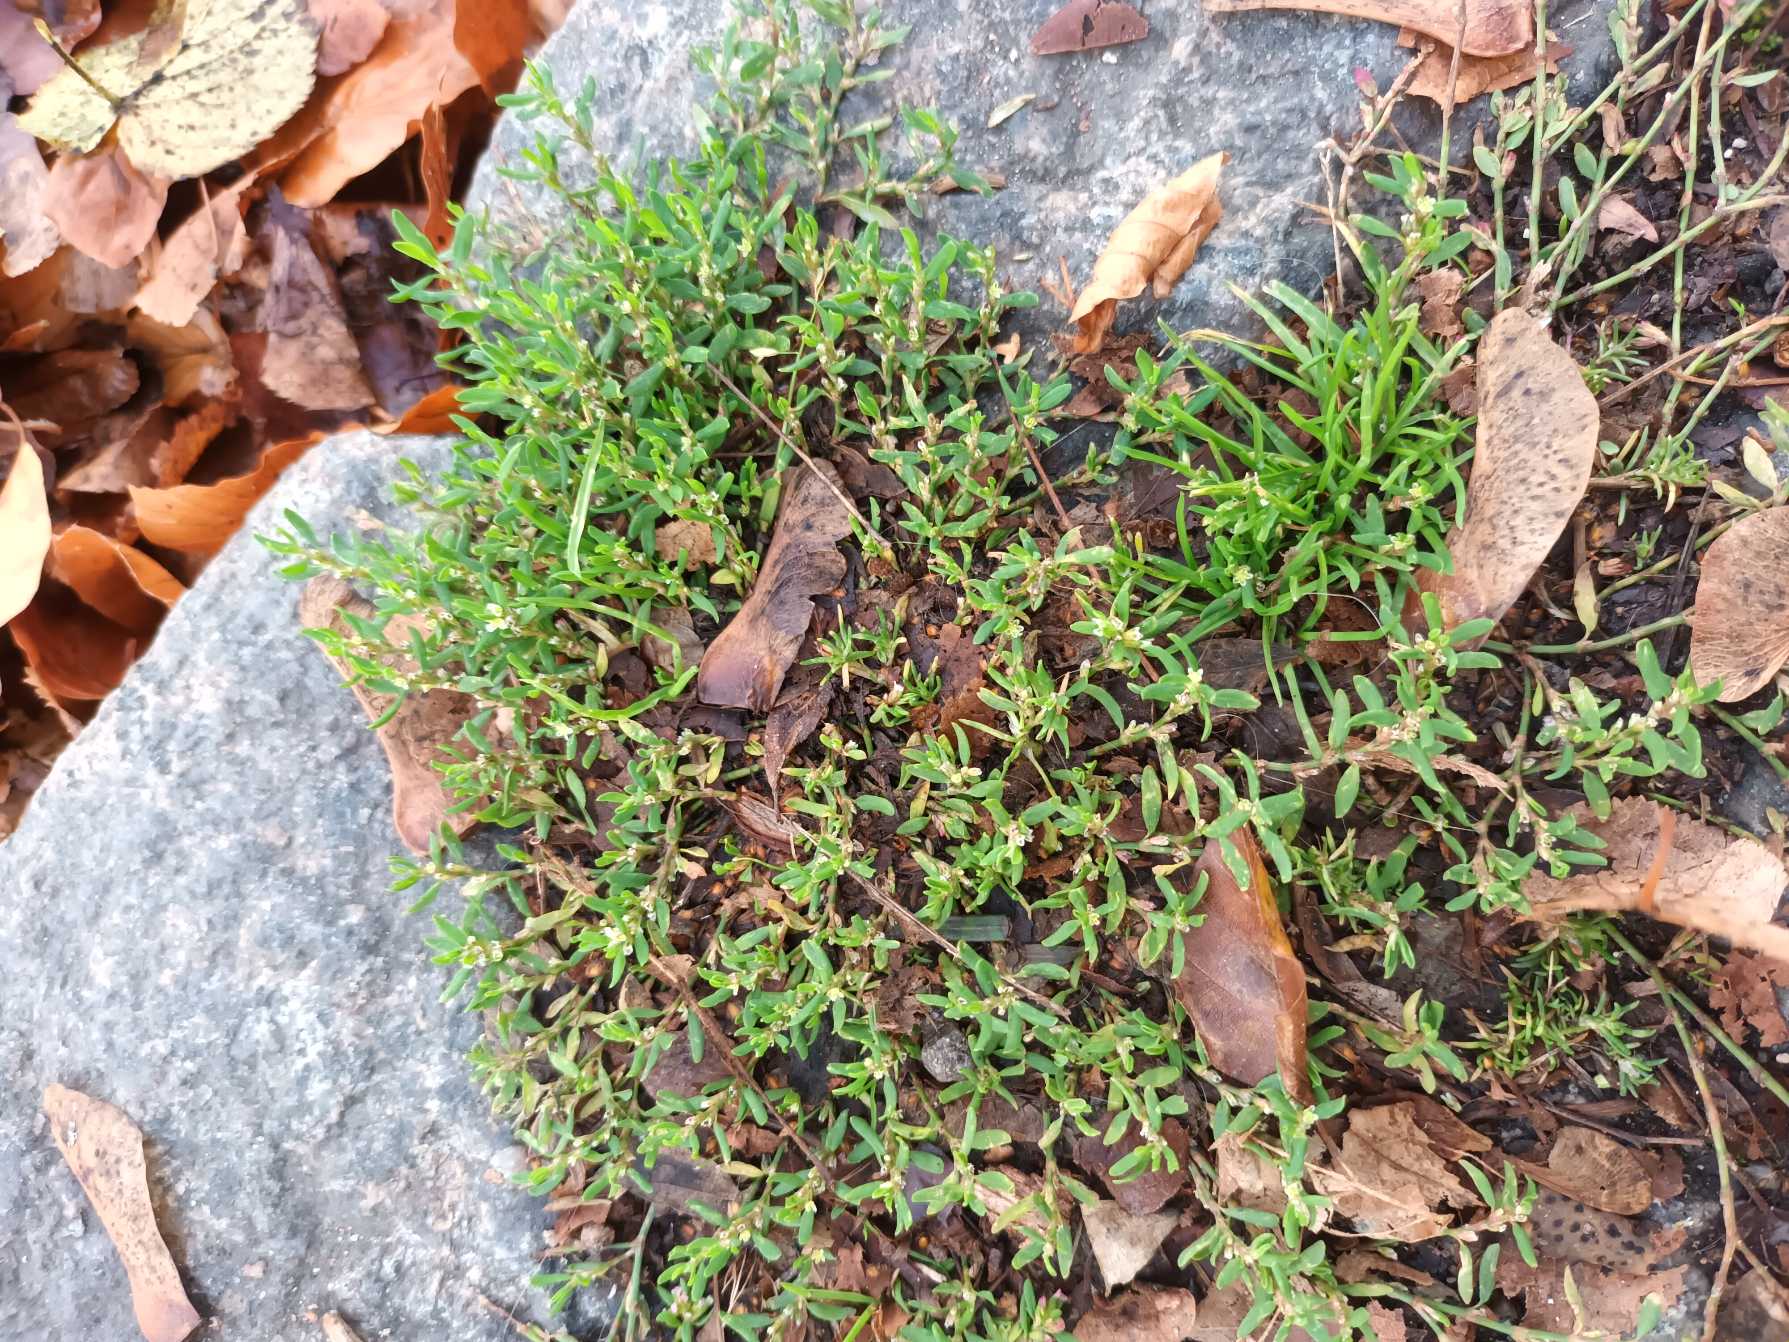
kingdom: Plantae
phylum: Tracheophyta
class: Magnoliopsida
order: Caryophyllales
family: Polygonaceae
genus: Polygonum
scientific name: Polygonum arenastrum
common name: Liggende vej-pileurt
